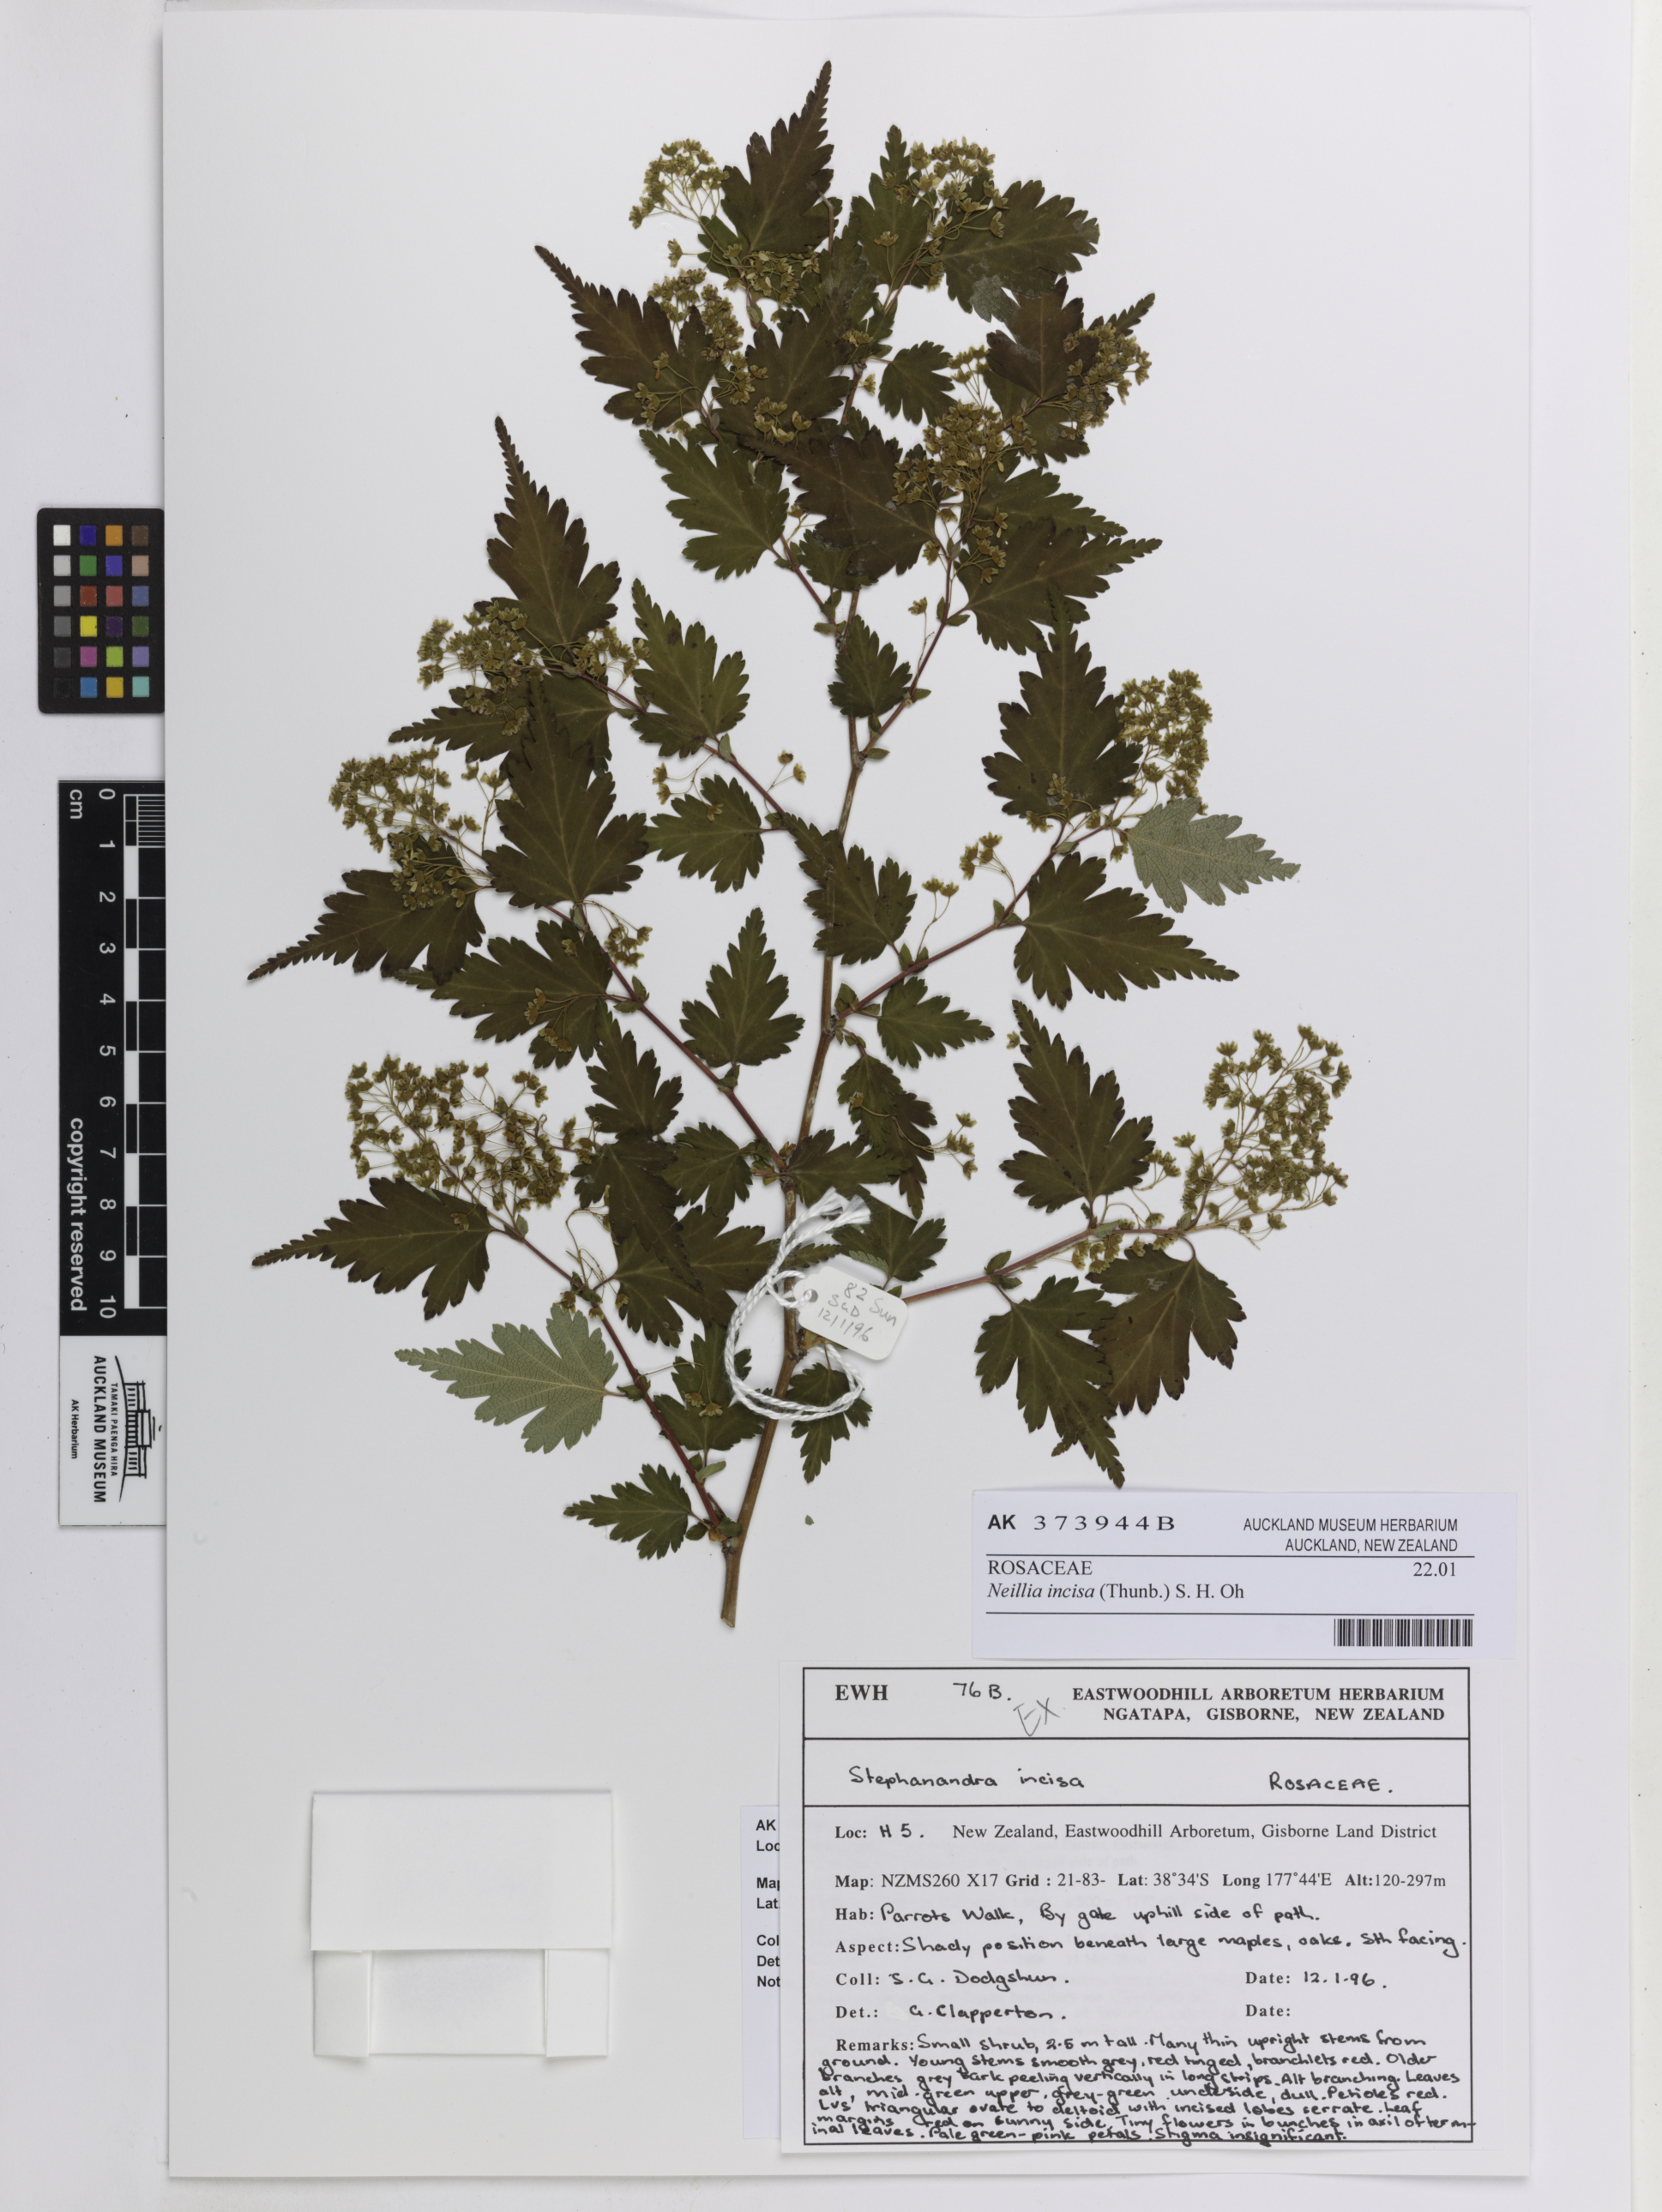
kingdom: Plantae
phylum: Tracheophyta
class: Magnoliopsida
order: Rosales
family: Rosaceae
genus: Neillia
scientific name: Neillia incisa
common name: Laceshrub
